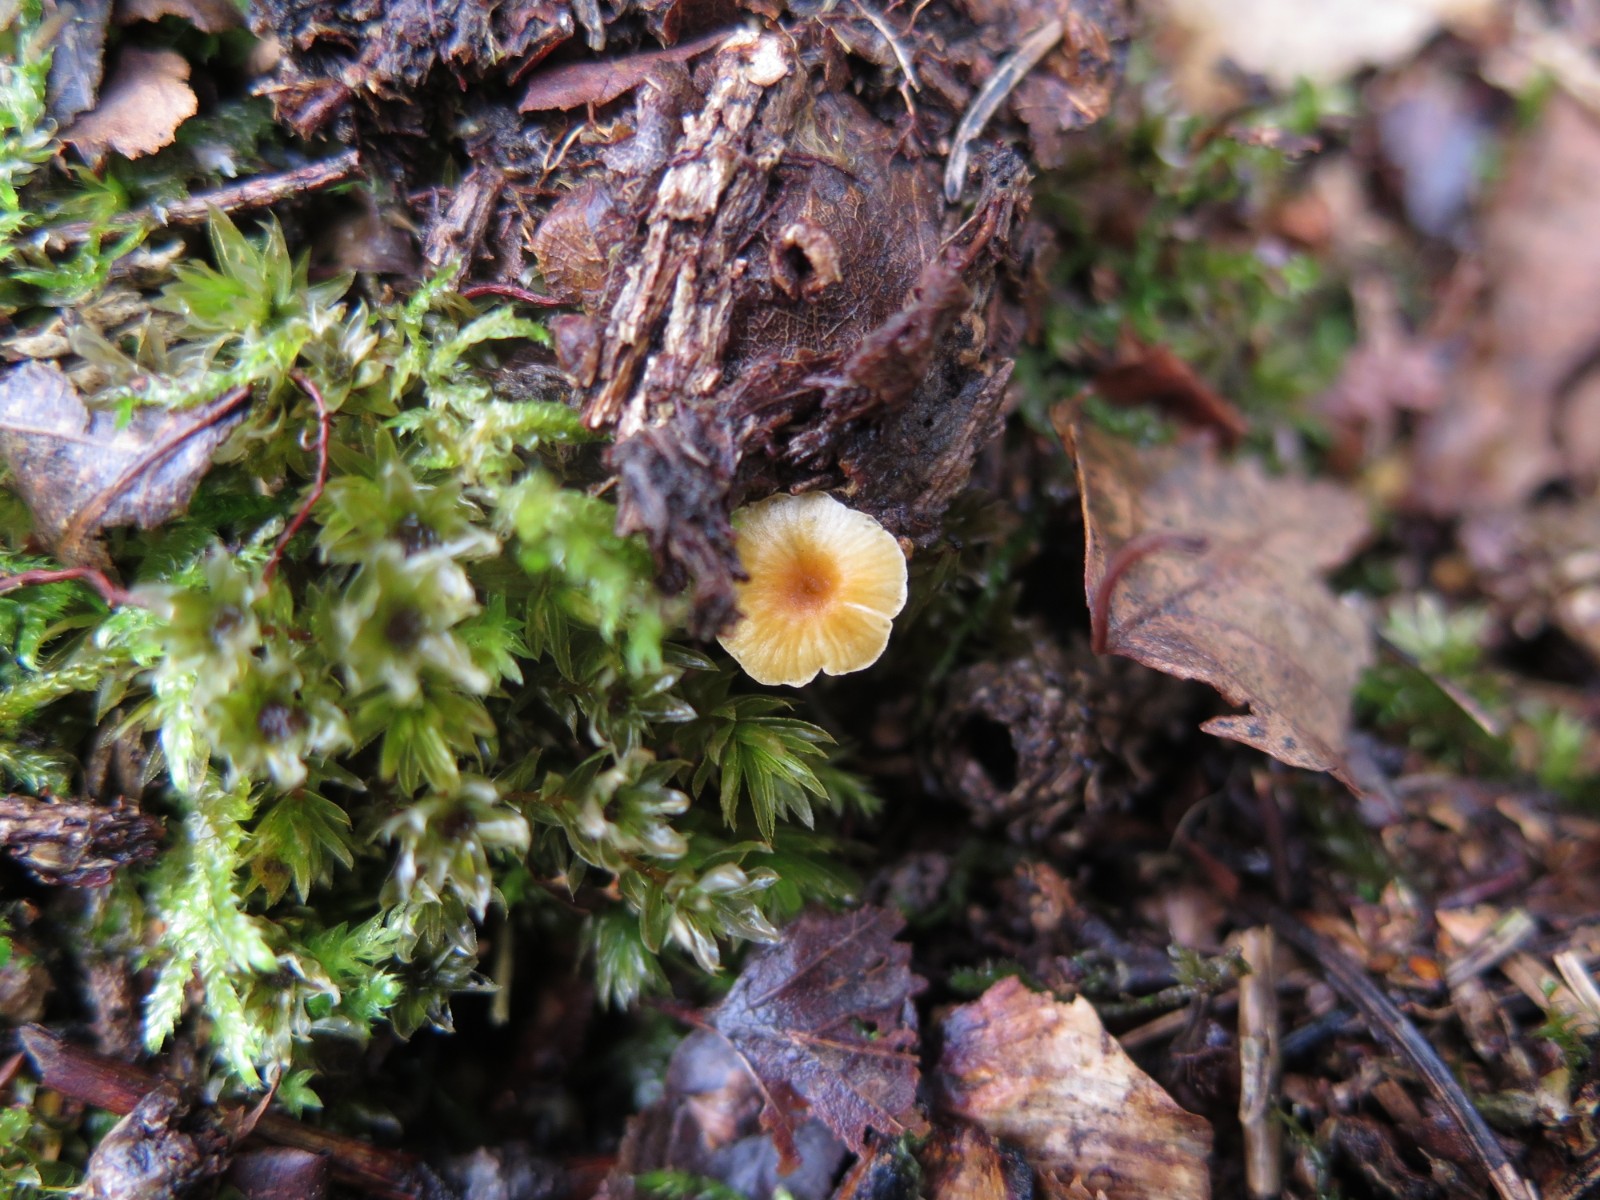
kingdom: Fungi
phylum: Basidiomycota
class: Agaricomycetes
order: Hymenochaetales
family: Rickenellaceae
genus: Rickenella
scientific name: Rickenella fibula
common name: orange mosnavlehat
